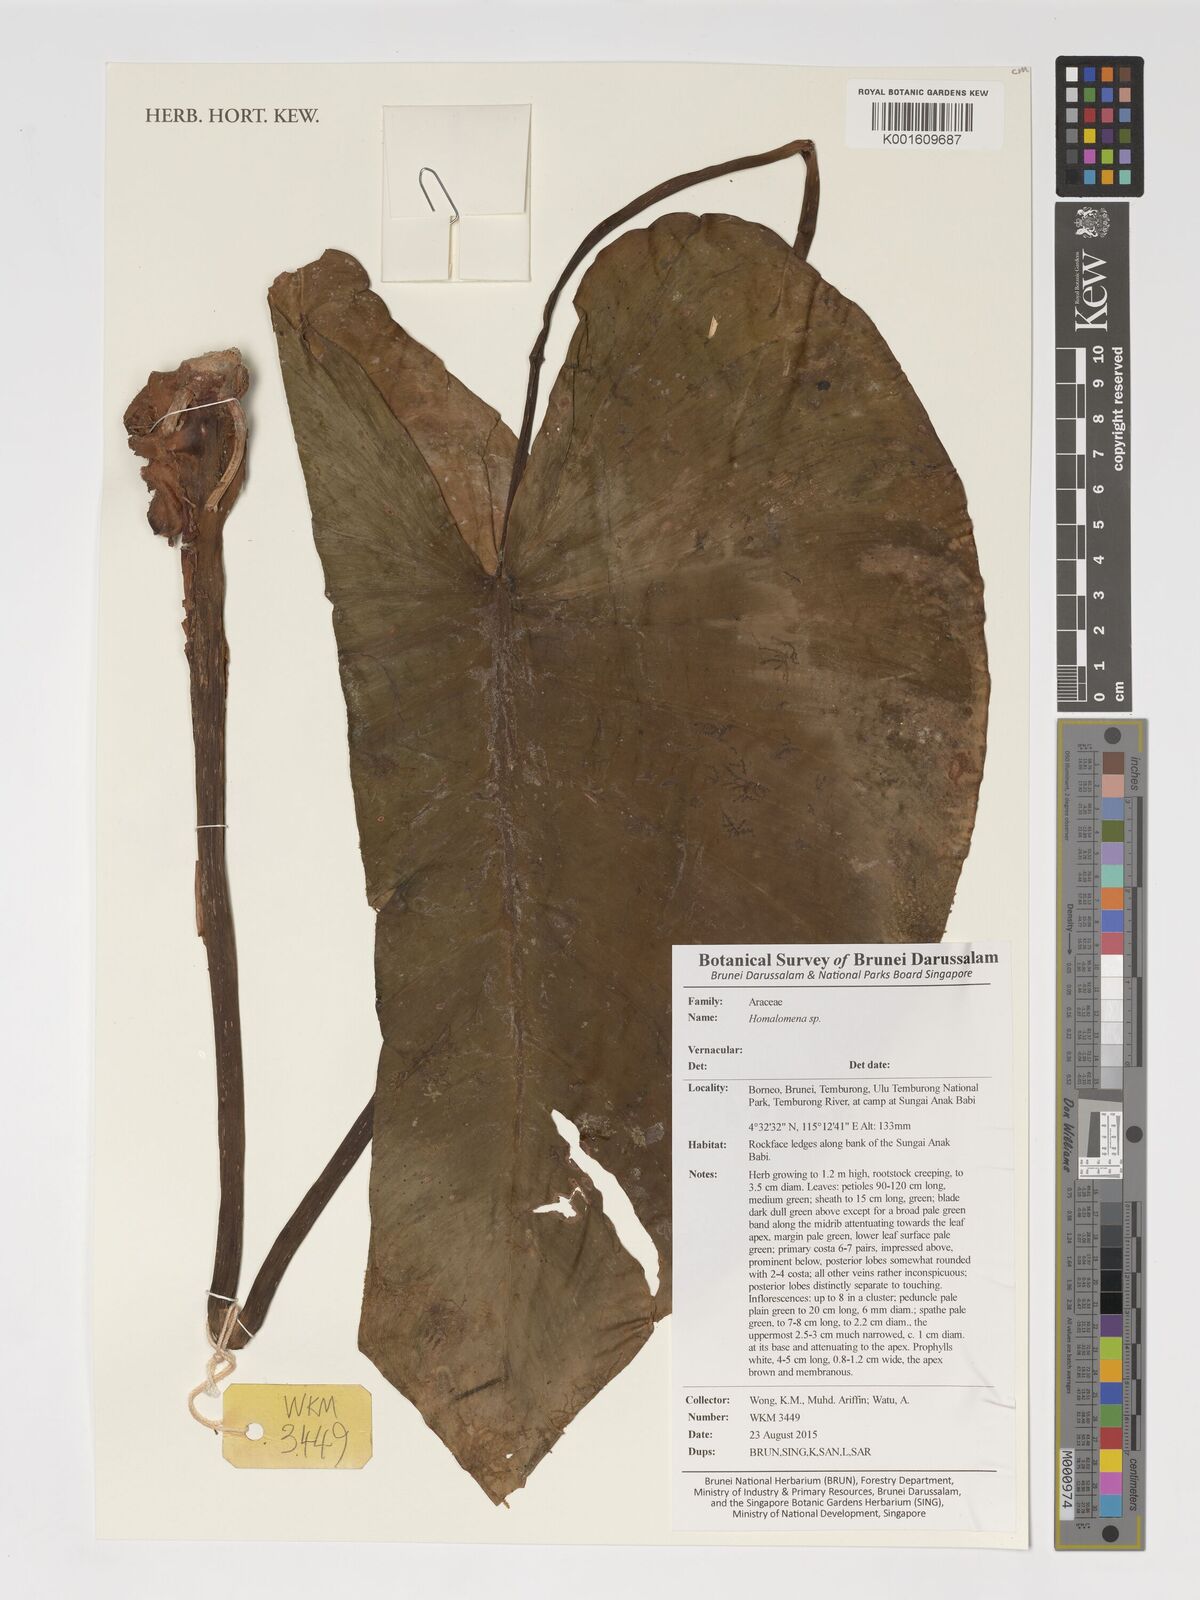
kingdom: Plantae
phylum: Tracheophyta
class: Liliopsida
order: Alismatales
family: Araceae
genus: Homalomena
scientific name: Homalomena
